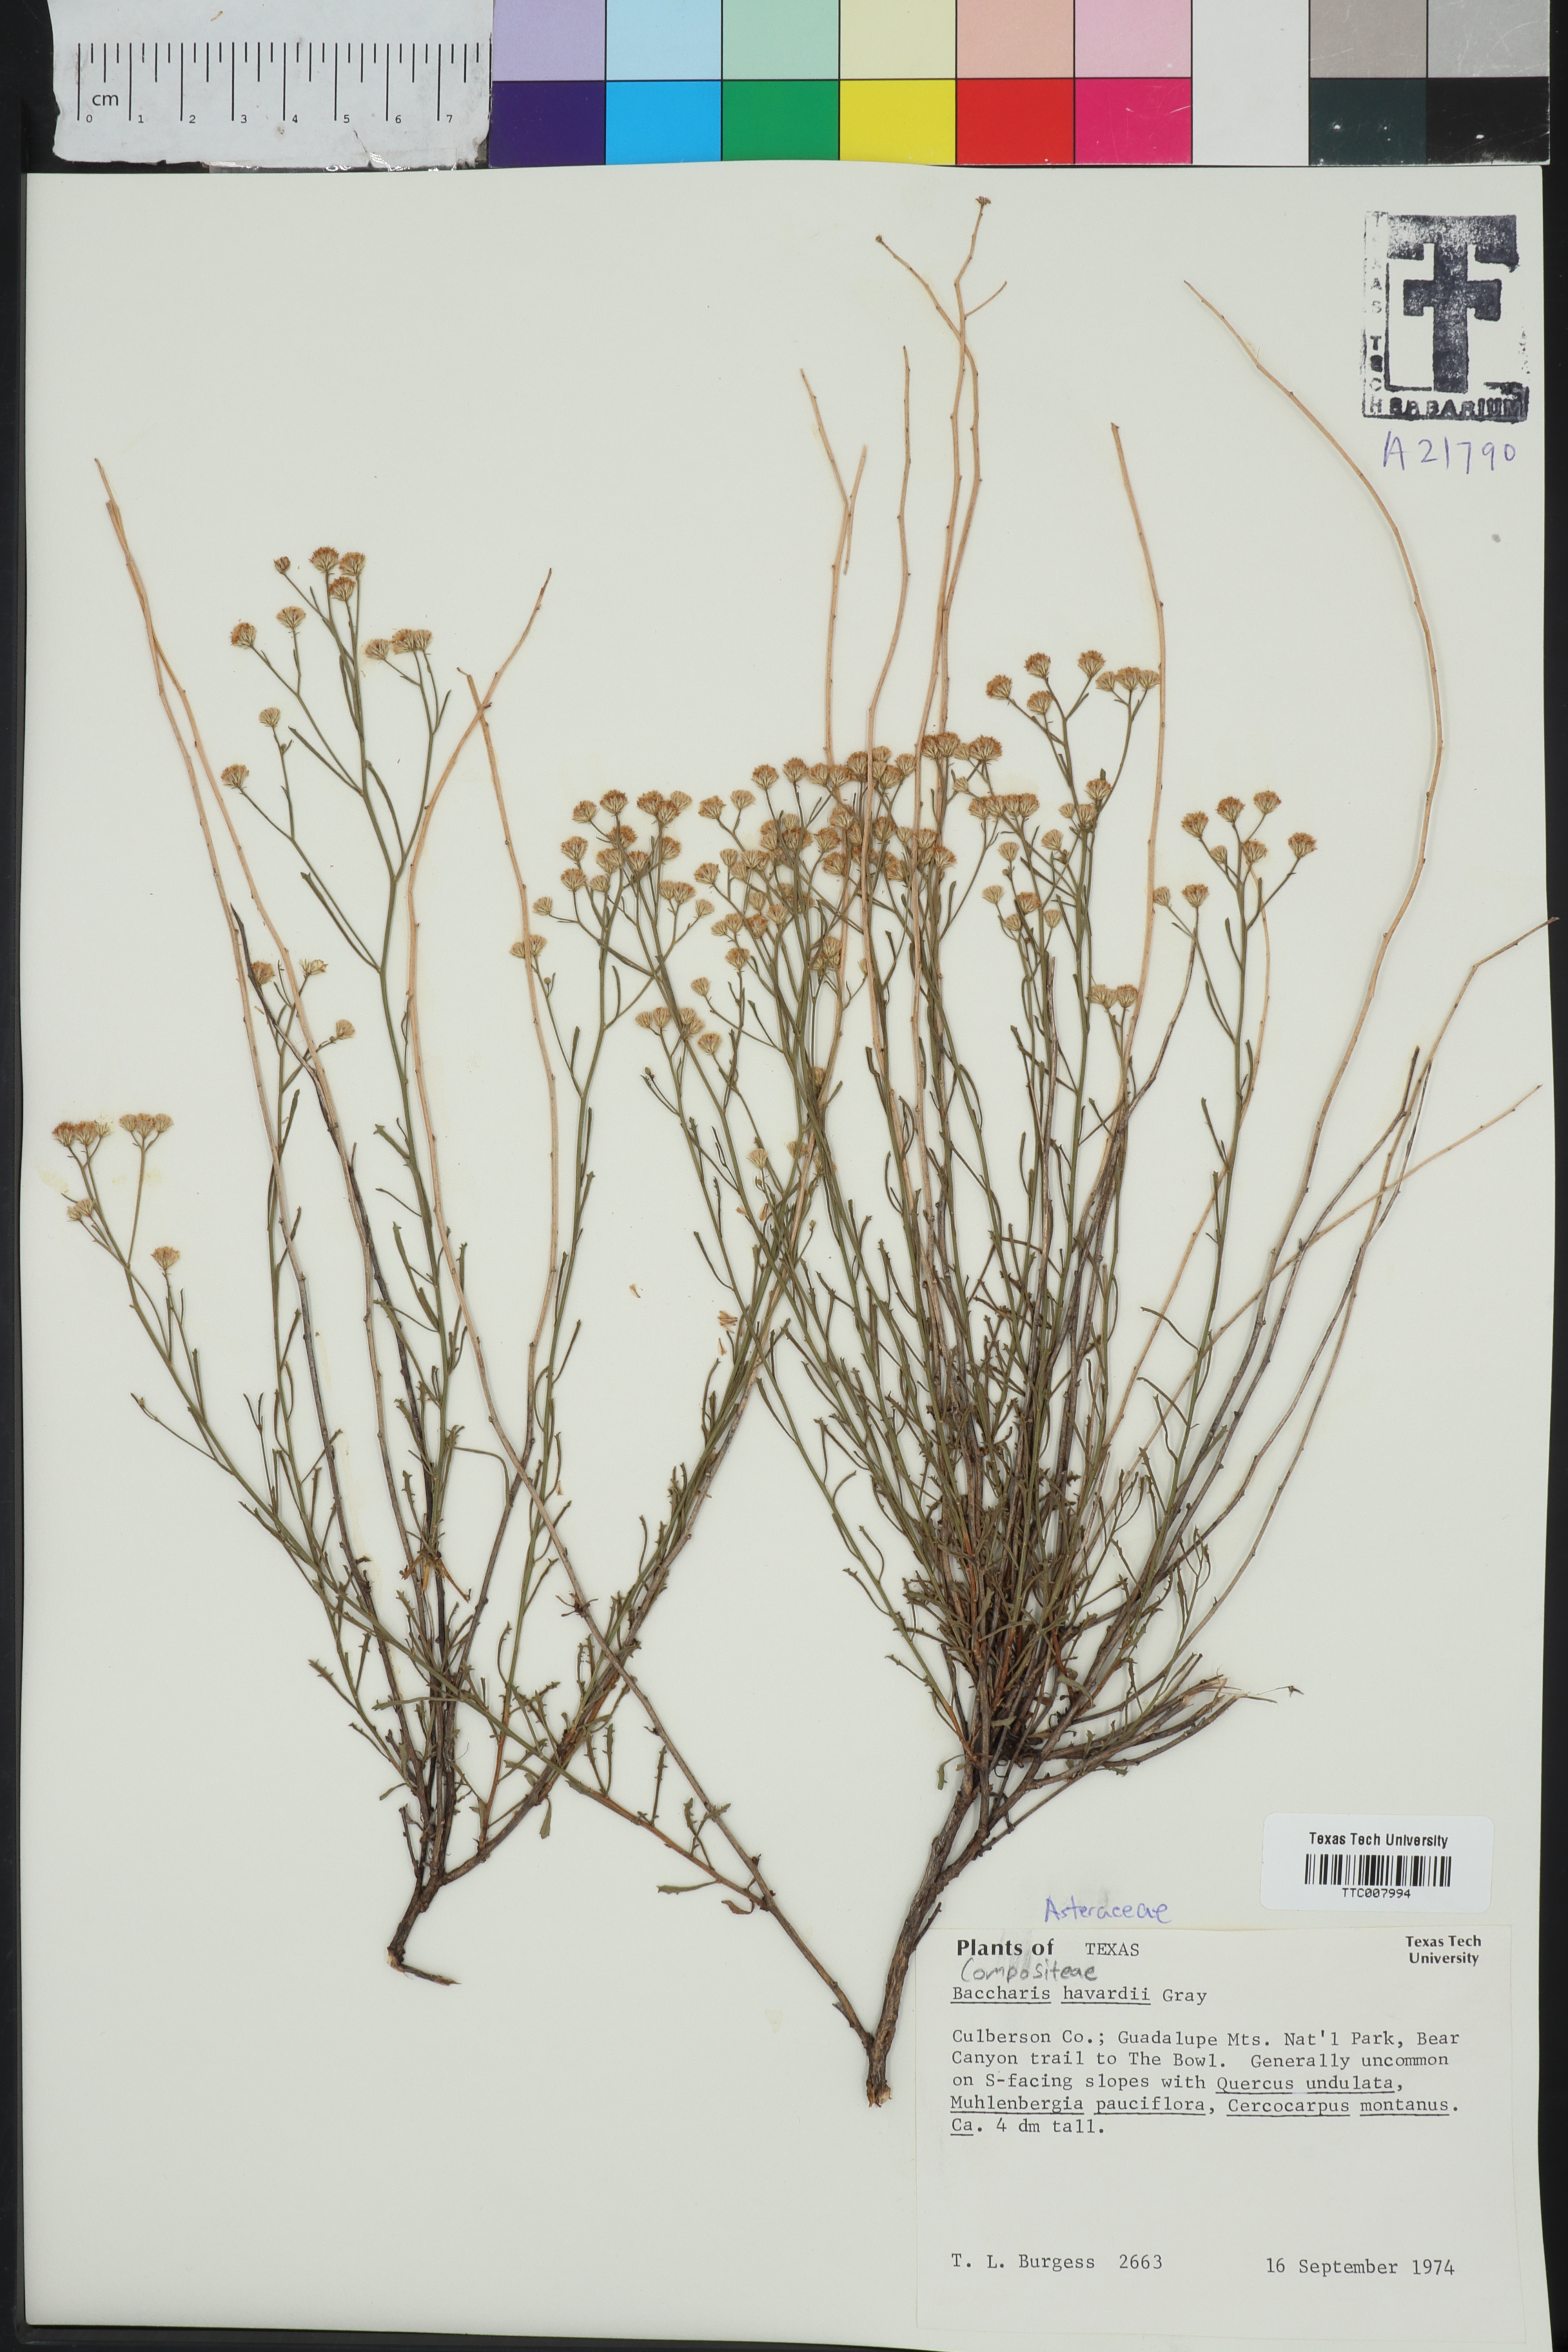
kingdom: Plantae
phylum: Tracheophyta
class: Magnoliopsida
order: Asterales
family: Asteraceae
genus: Baccharis
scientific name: Baccharis havardii
